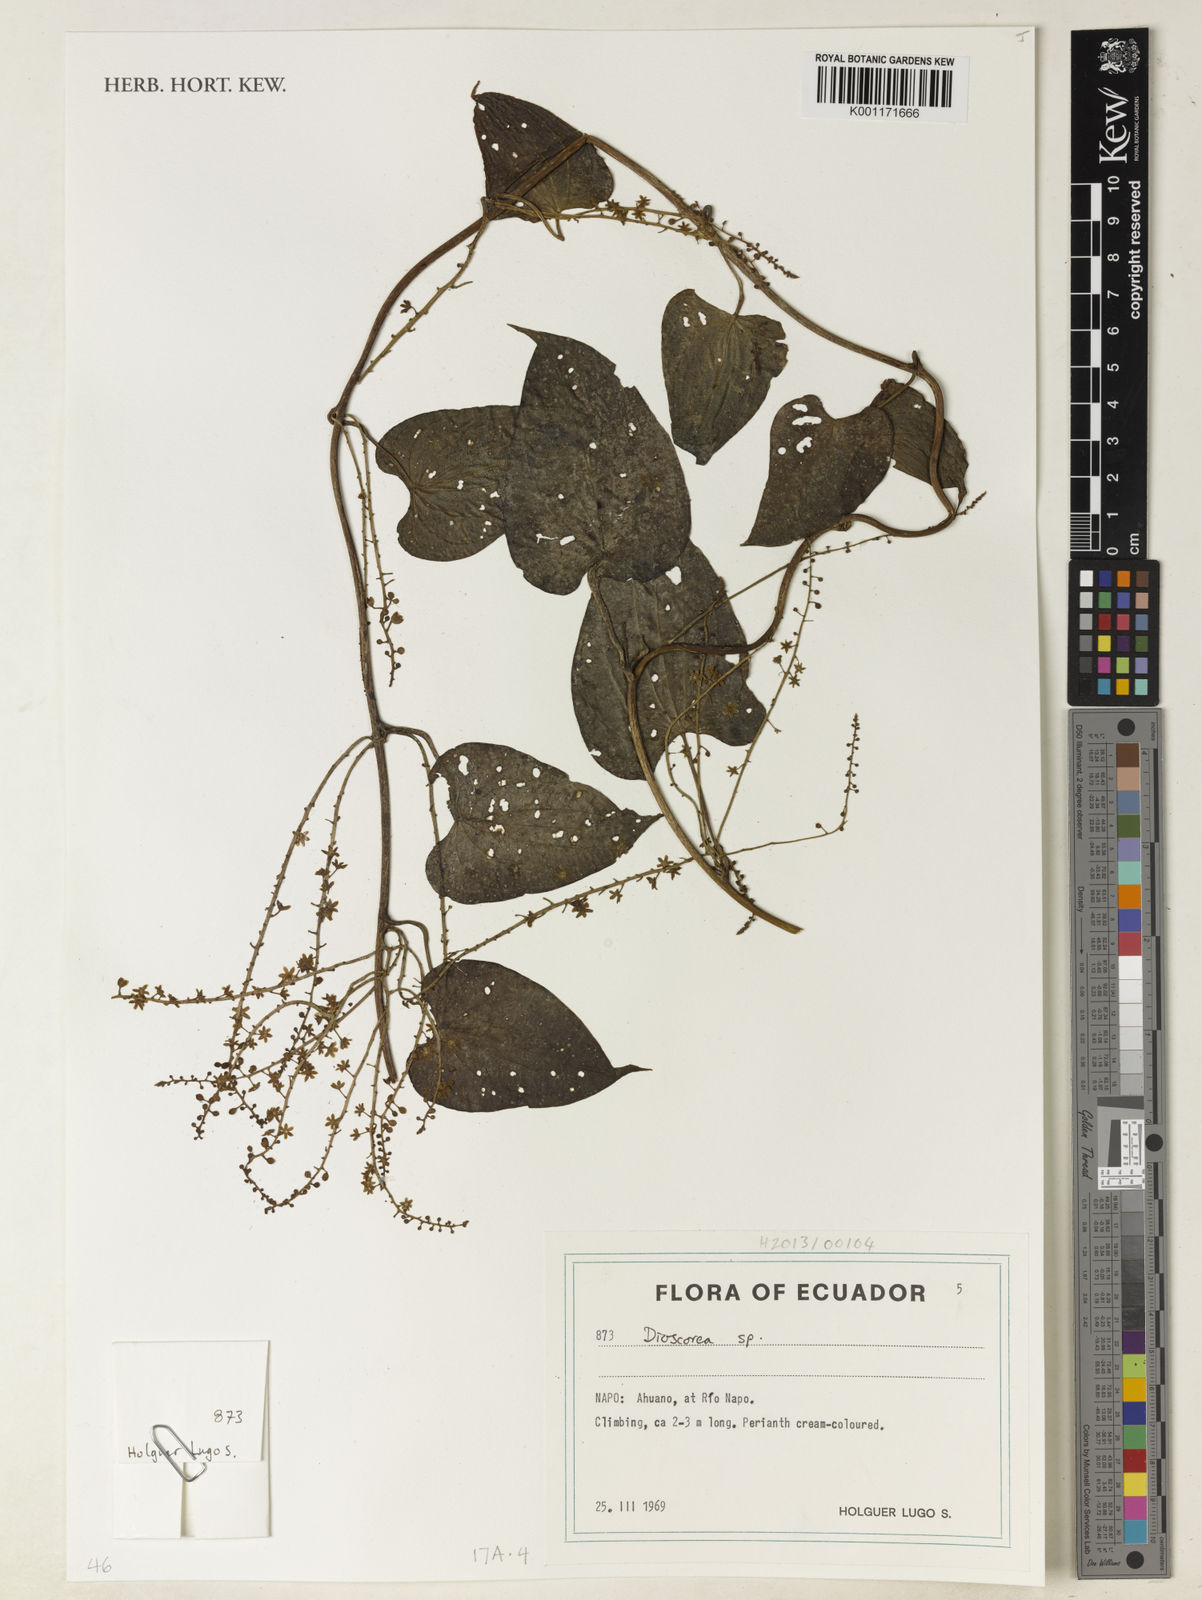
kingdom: Plantae
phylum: Tracheophyta
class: Liliopsida
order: Dioscoreales
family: Dioscoreaceae
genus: Dioscorea
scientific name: Dioscorea glandulosa
